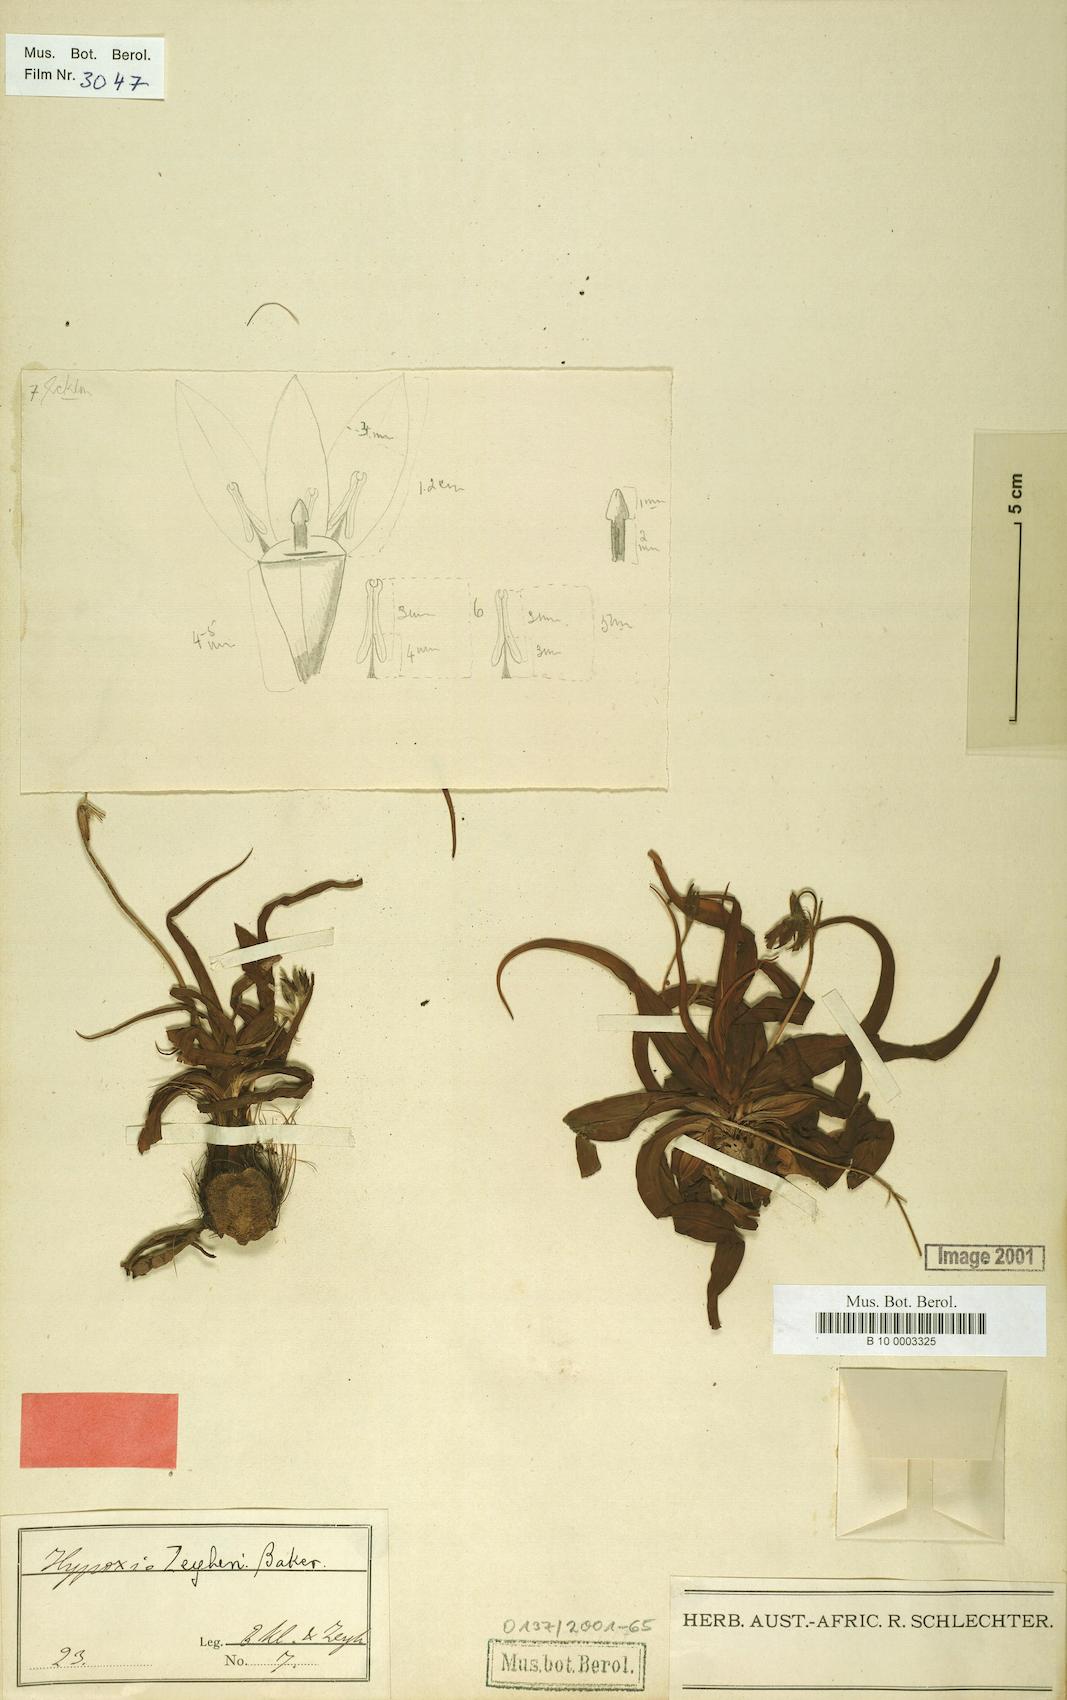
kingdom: Plantae
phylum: Tracheophyta
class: Liliopsida
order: Asparagales
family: Hypoxidaceae
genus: Hypoxis
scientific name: Hypoxis
